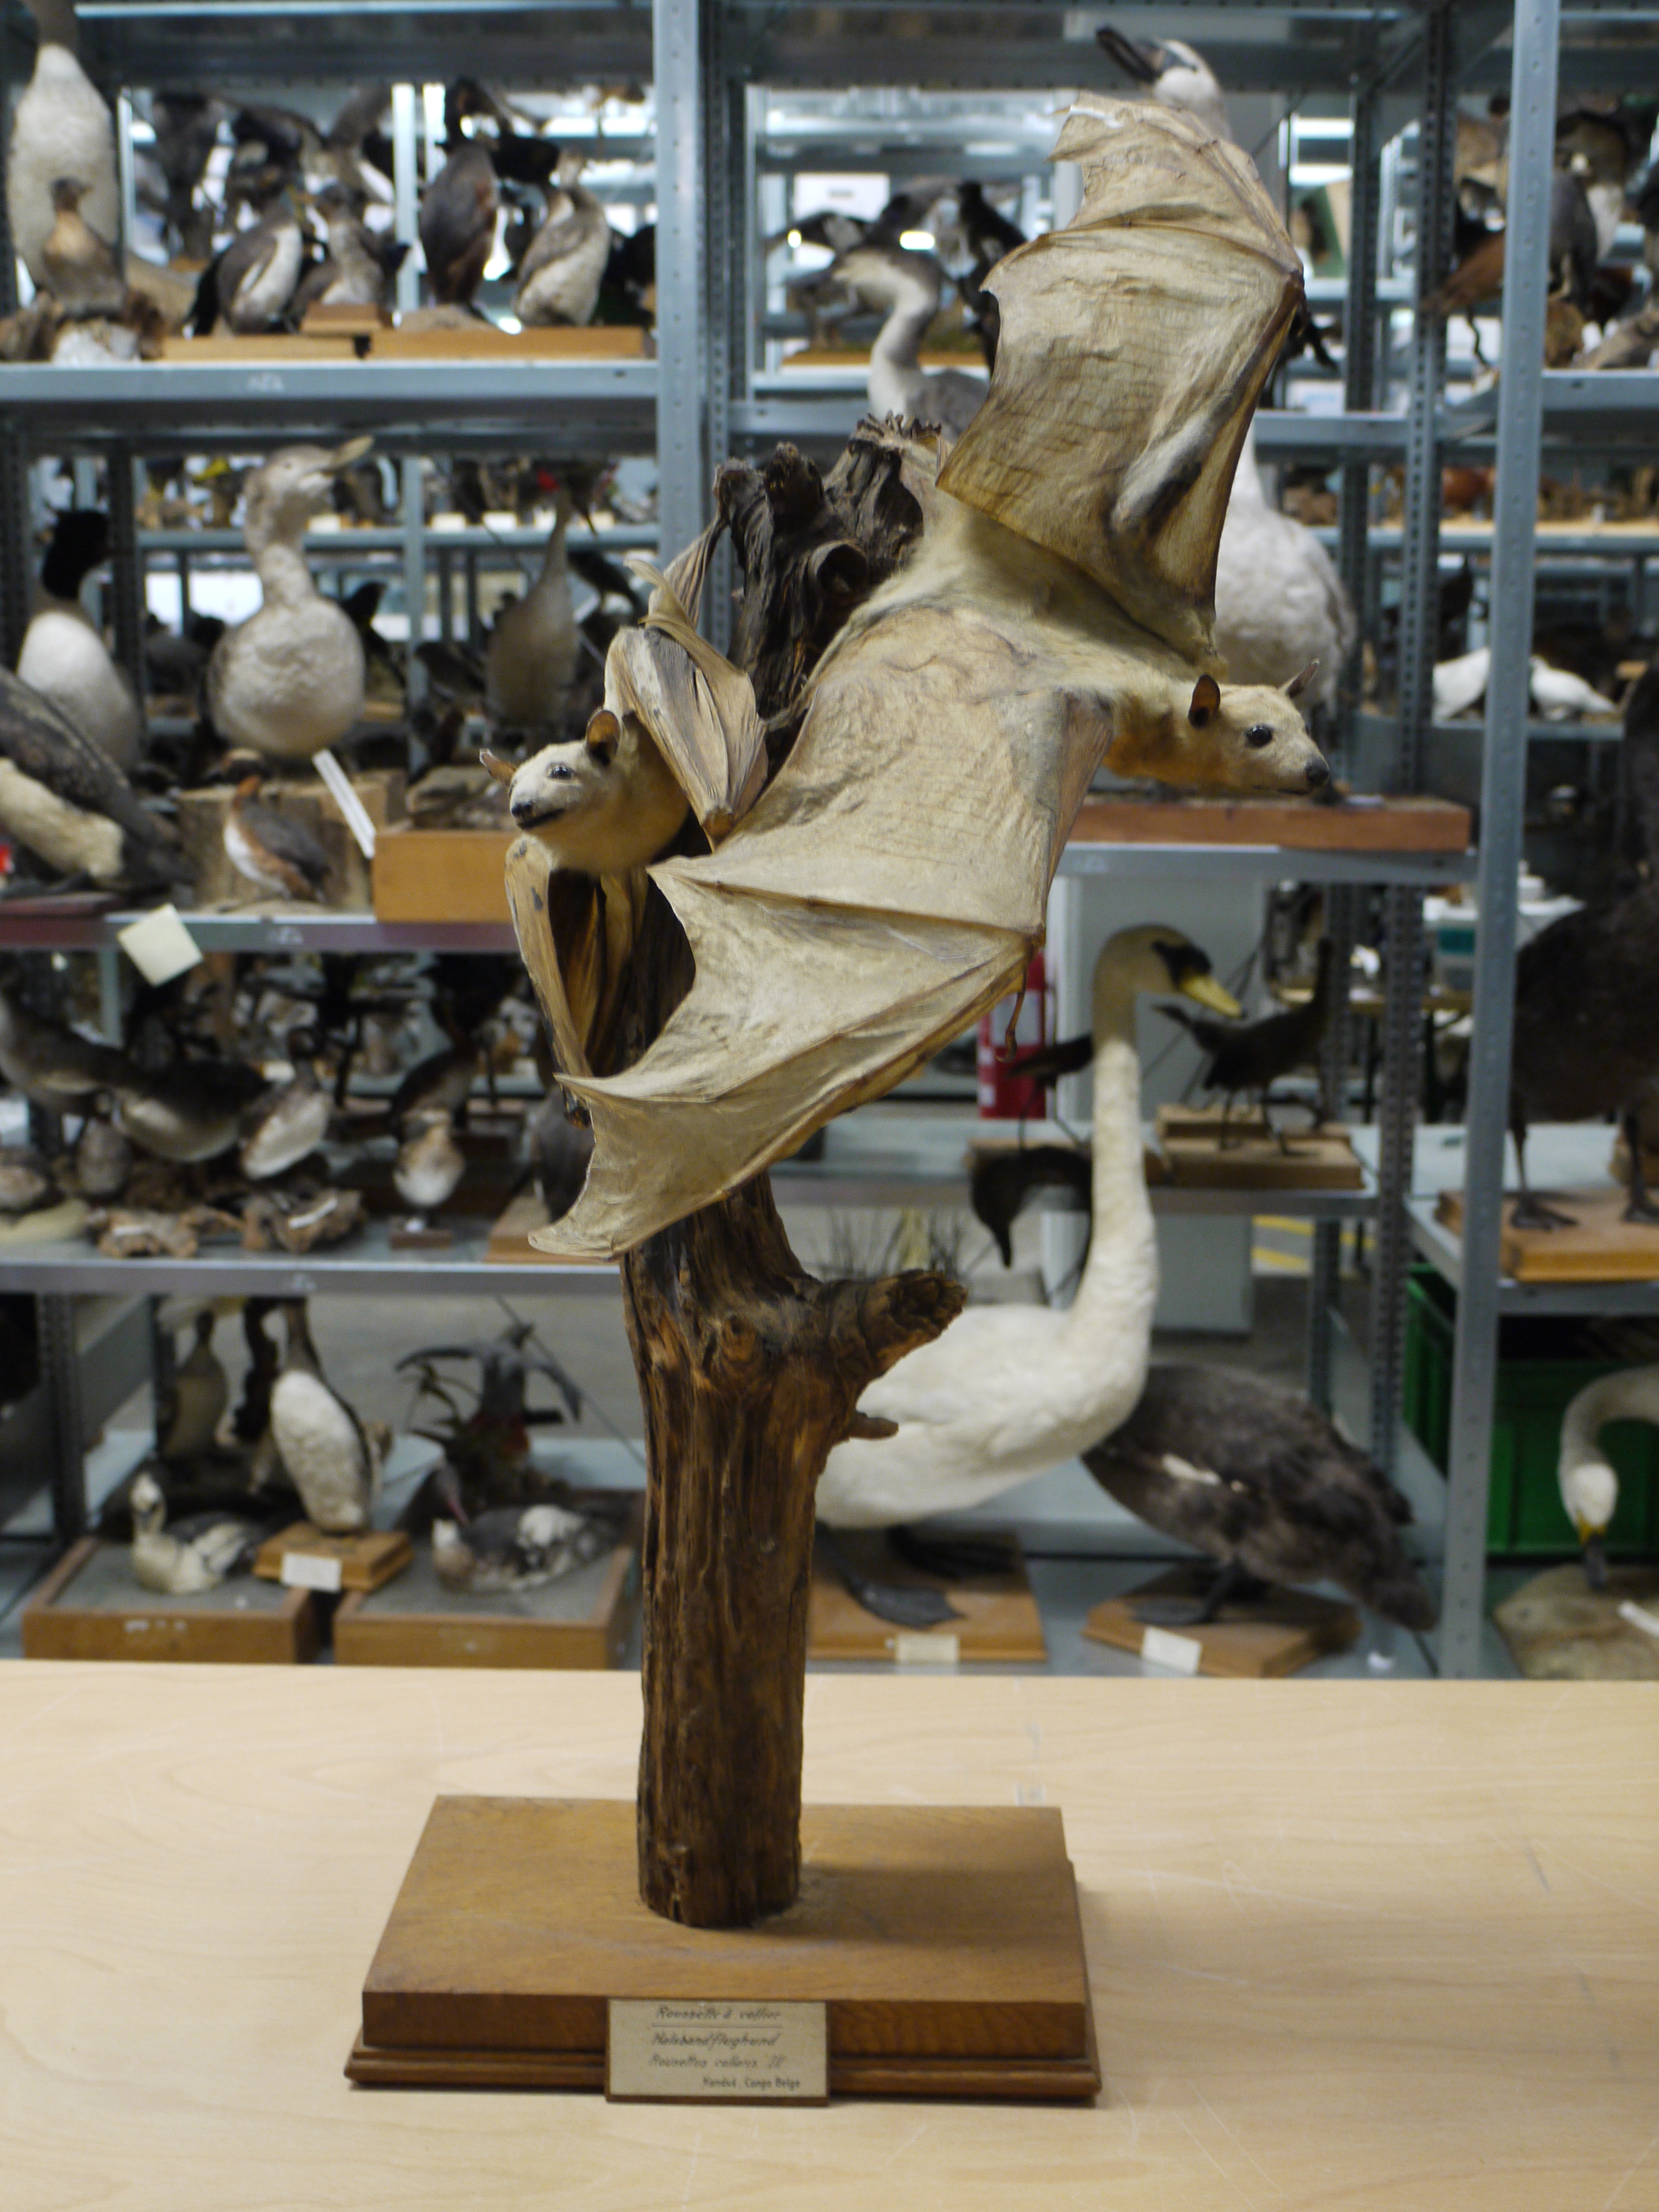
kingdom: Animalia
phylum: Chordata
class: Mammalia
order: Chiroptera
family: Pteropodidae
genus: Rousettus
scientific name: Rousettus aegyptiacus
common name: Egyptian rousette
